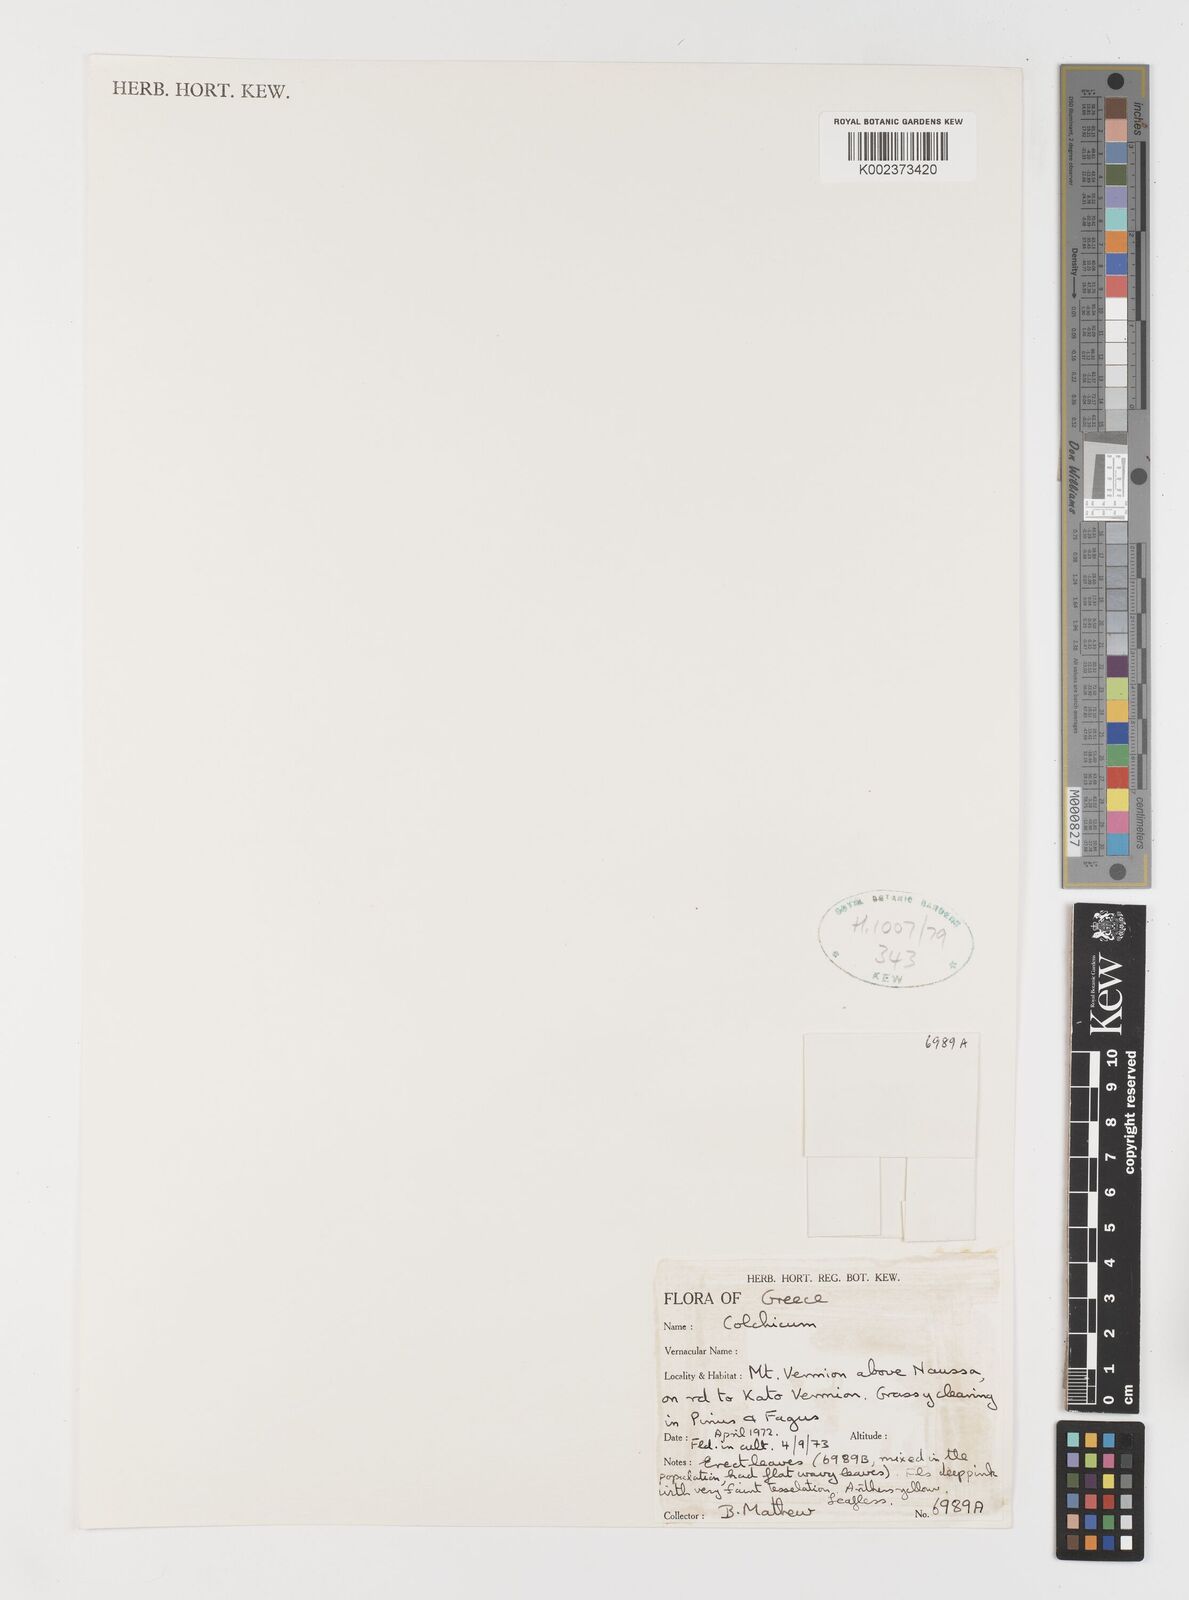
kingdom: Plantae
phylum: Tracheophyta
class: Liliopsida
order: Liliales
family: Colchicaceae
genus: Colchicum
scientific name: Colchicum
